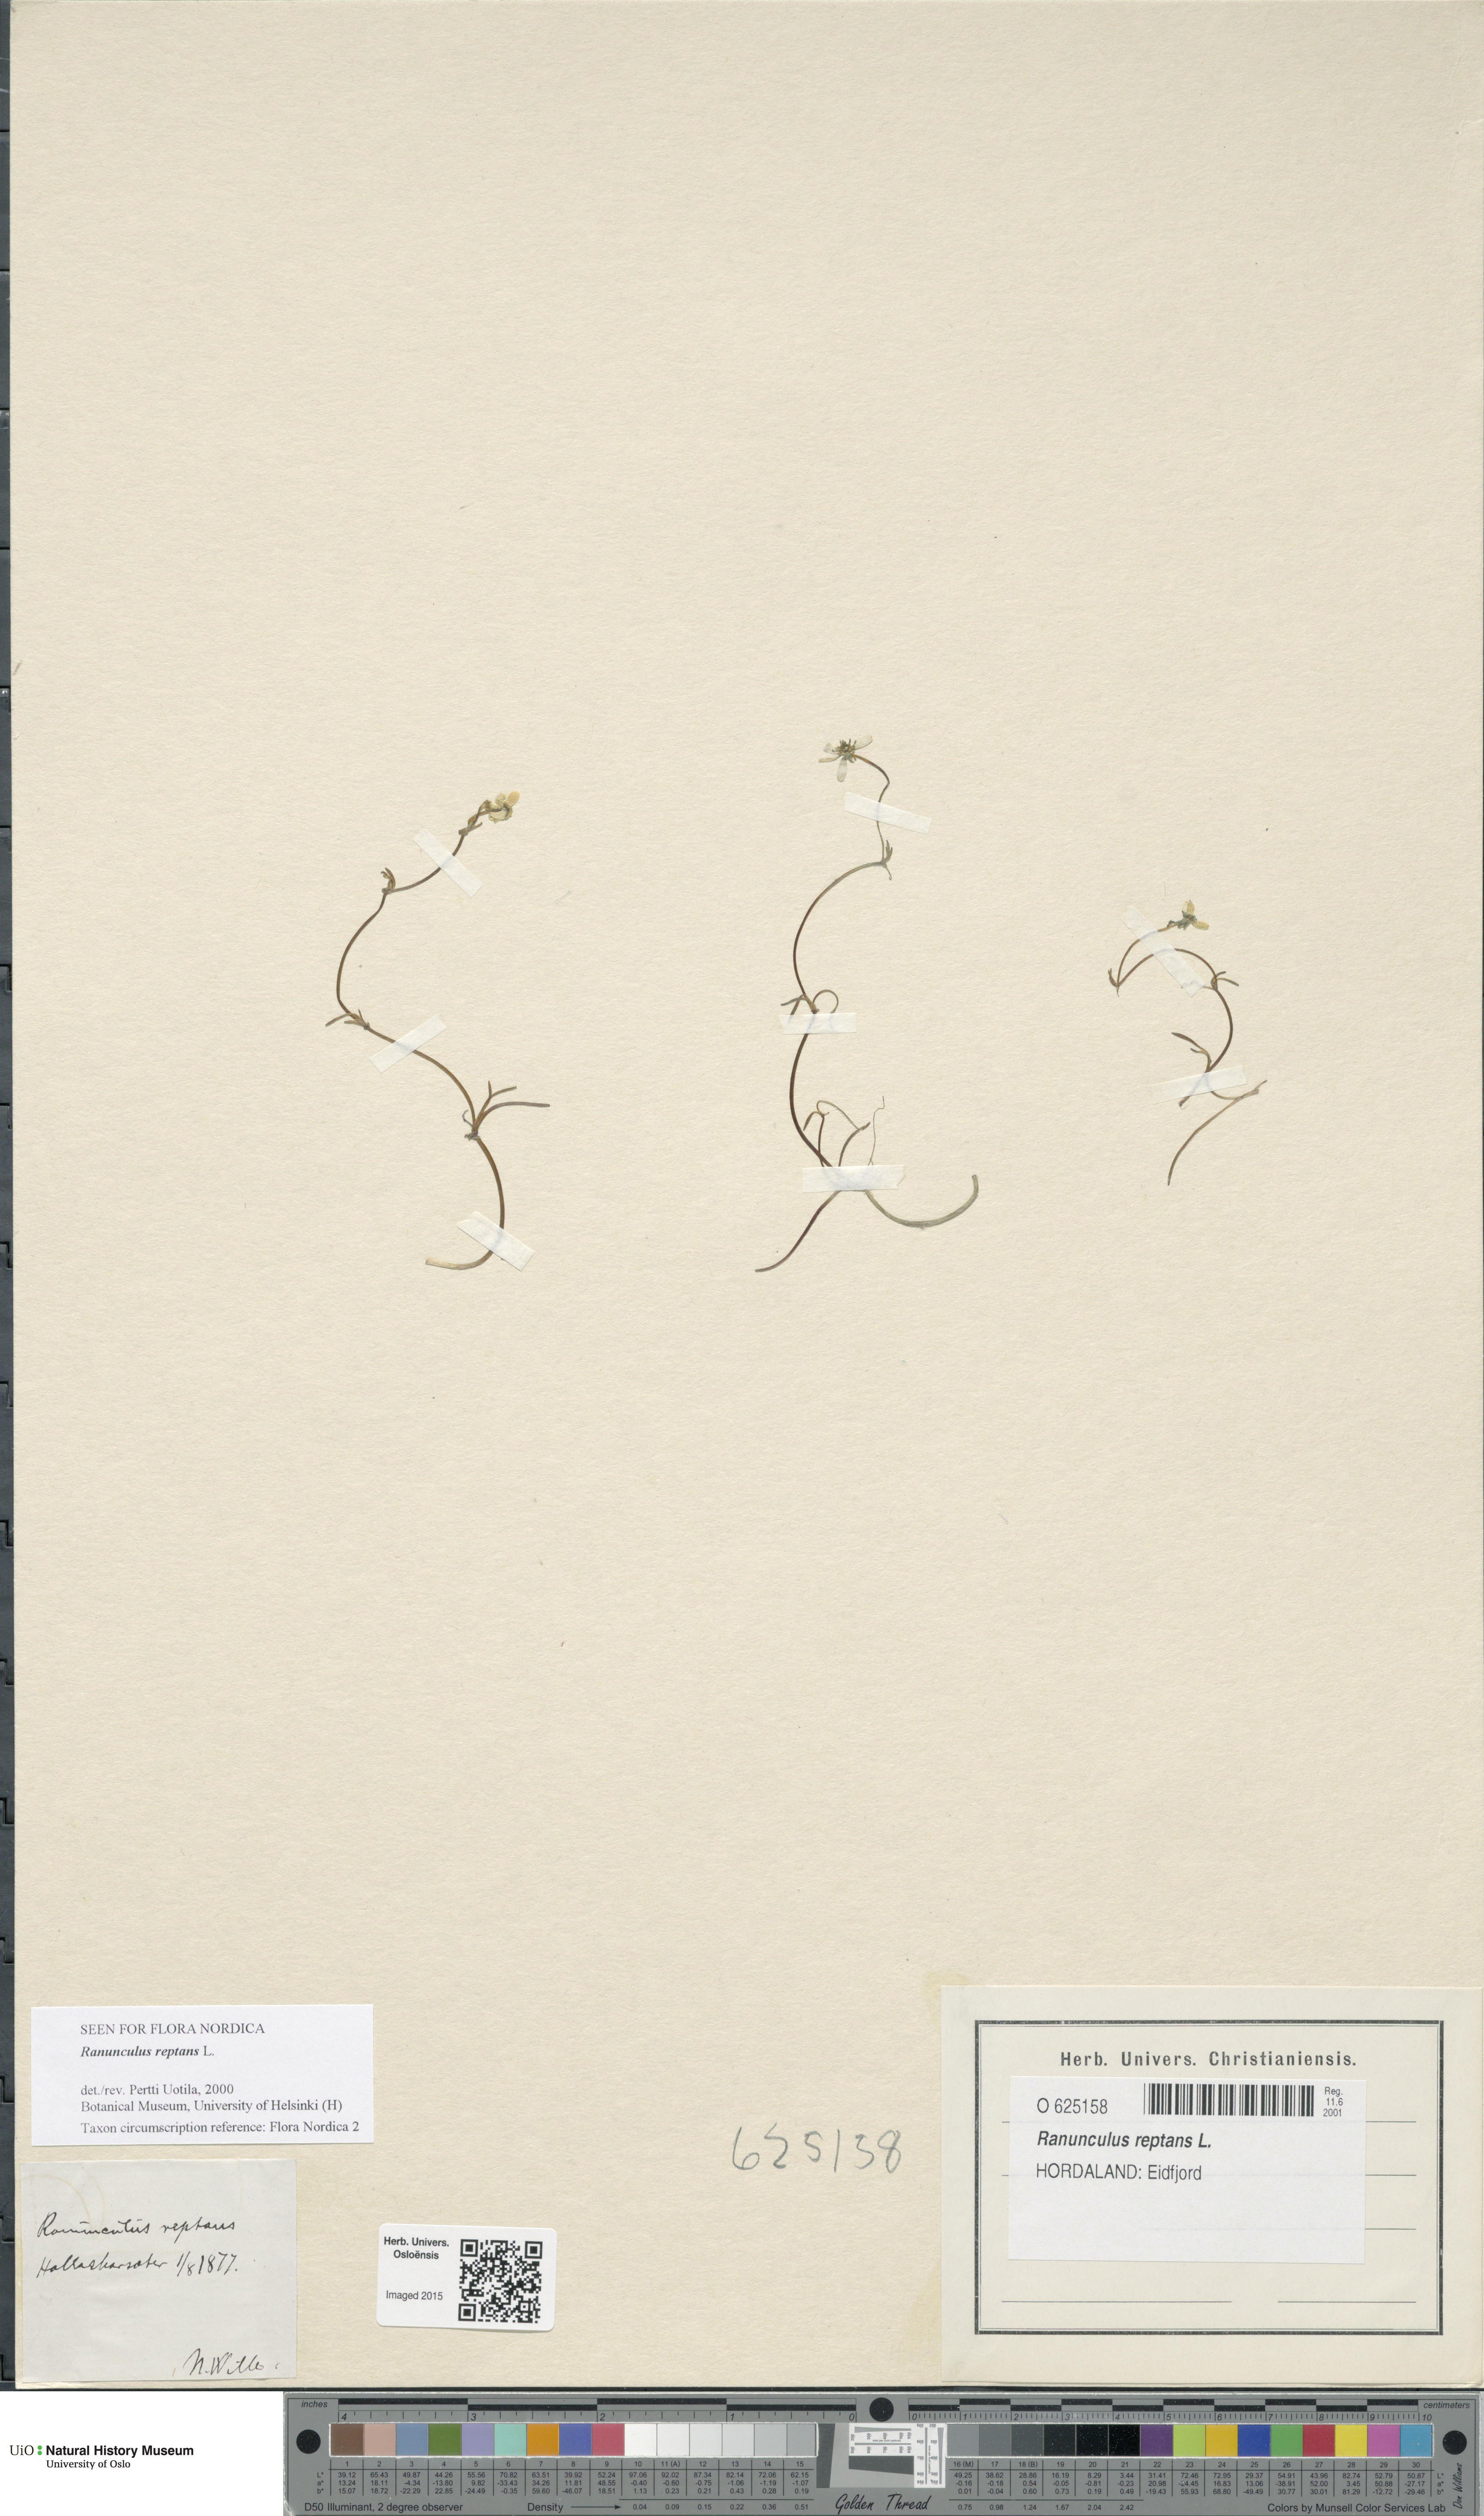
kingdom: Plantae
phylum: Tracheophyta
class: Magnoliopsida
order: Ranunculales
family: Ranunculaceae
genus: Ranunculus
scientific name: Ranunculus reptans
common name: Creeping spearwort
